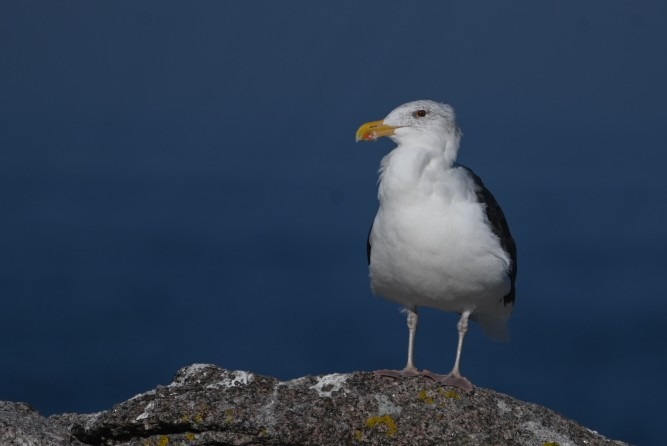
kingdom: Animalia
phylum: Chordata
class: Aves
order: Charadriiformes
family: Laridae
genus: Larus
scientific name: Larus marinus
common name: Svartbag
